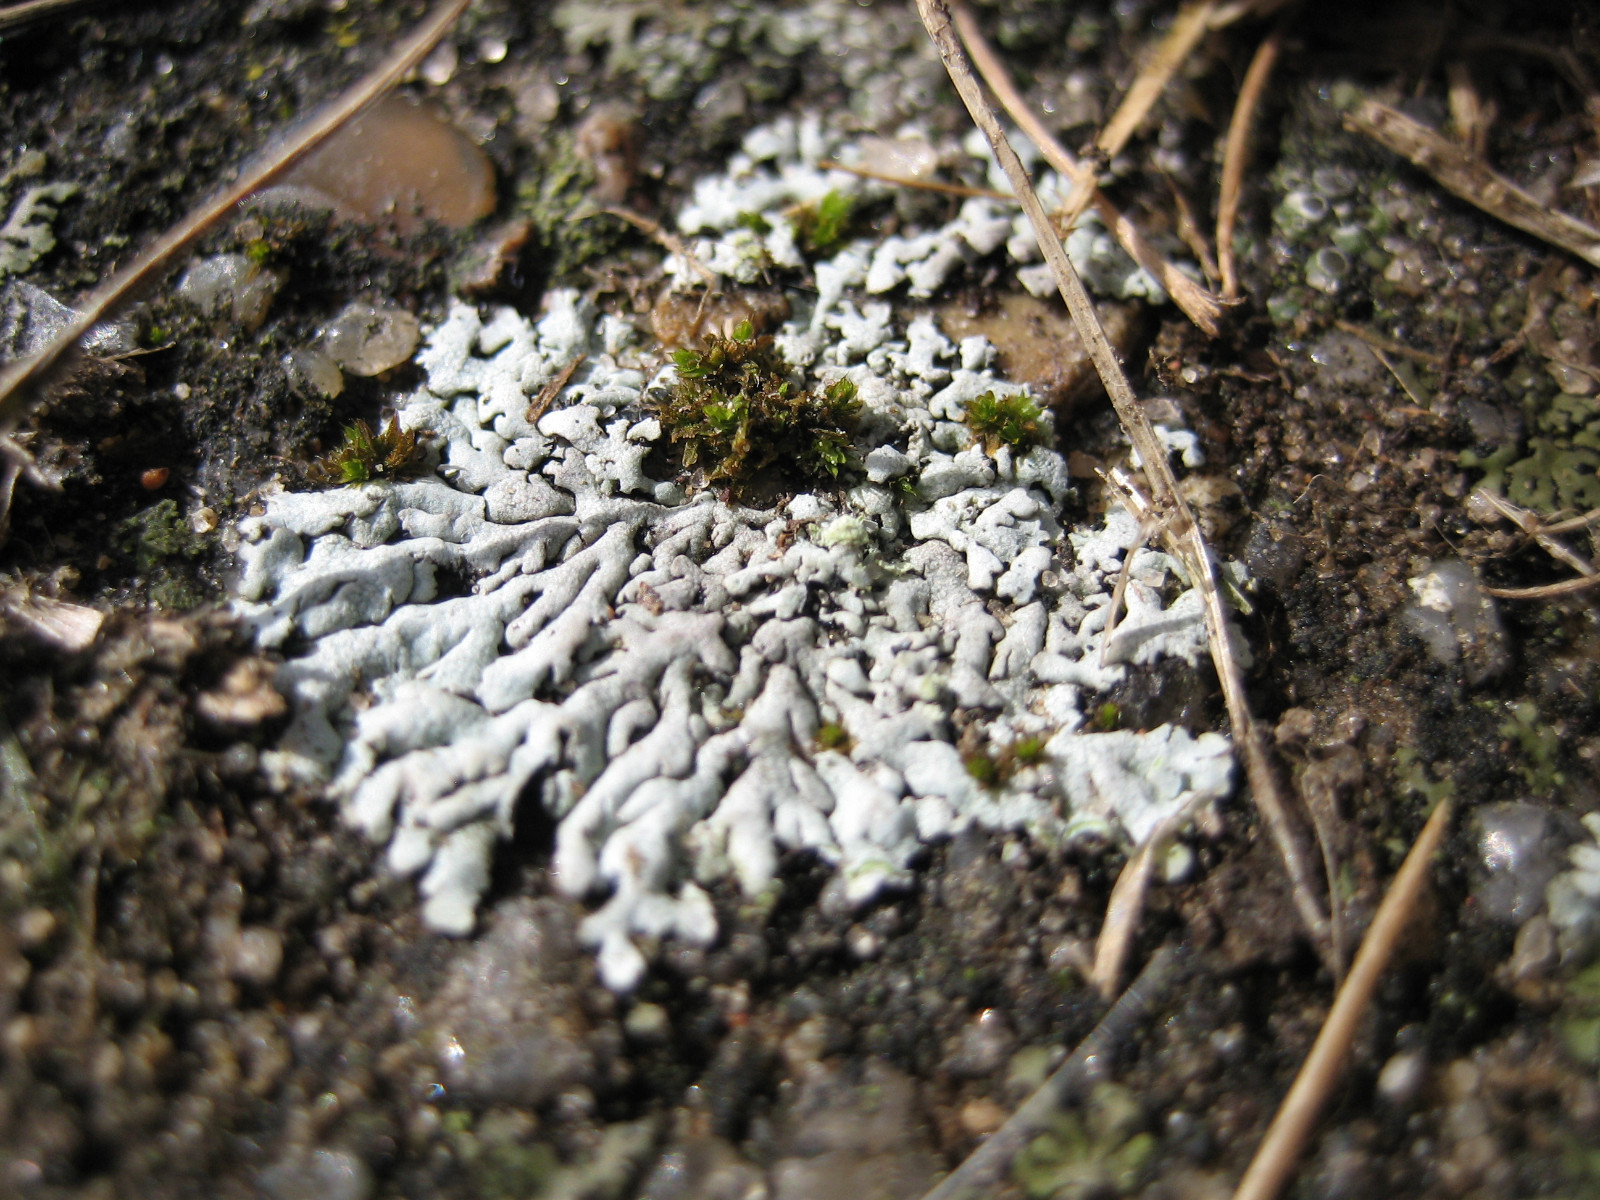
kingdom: Fungi
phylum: Ascomycota
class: Lecanoromycetes
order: Caliciales
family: Physciaceae
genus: Physcia
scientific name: Physcia caesia
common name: blågrå rosetlav
